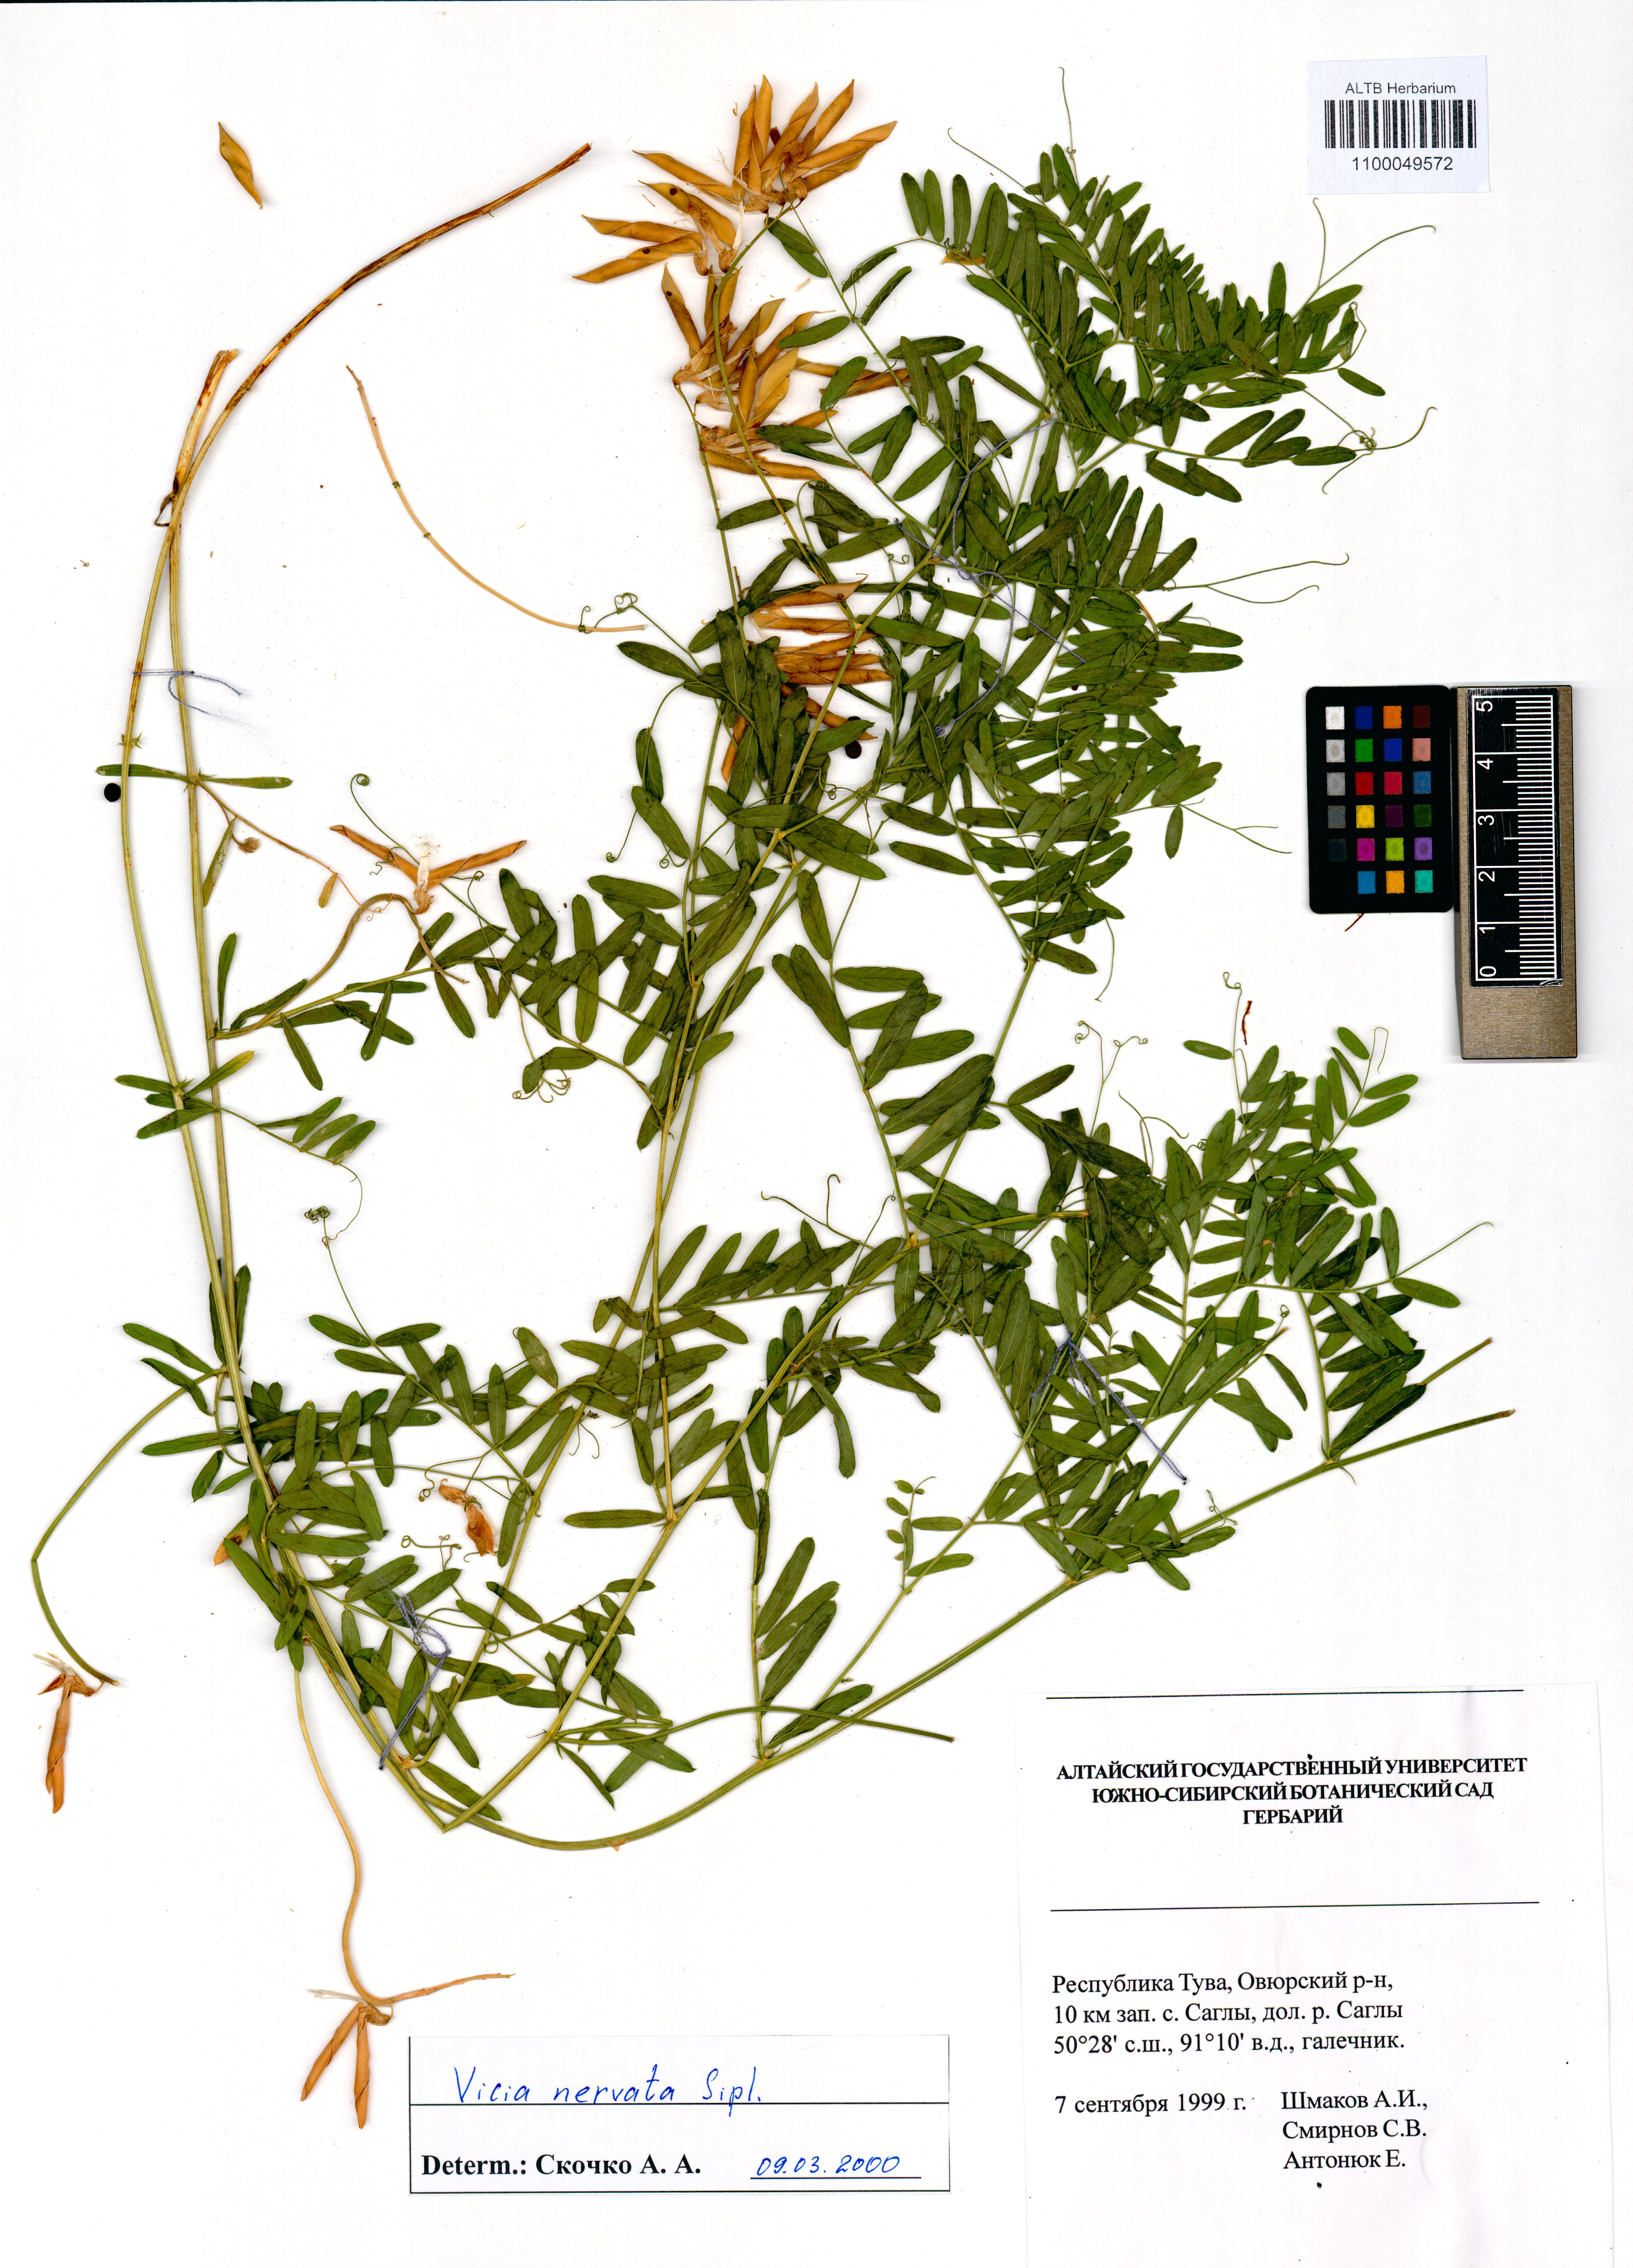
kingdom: Plantae
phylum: Tracheophyta
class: Magnoliopsida
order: Fabales
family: Fabaceae
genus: Vicia
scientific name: Vicia multicaulis
